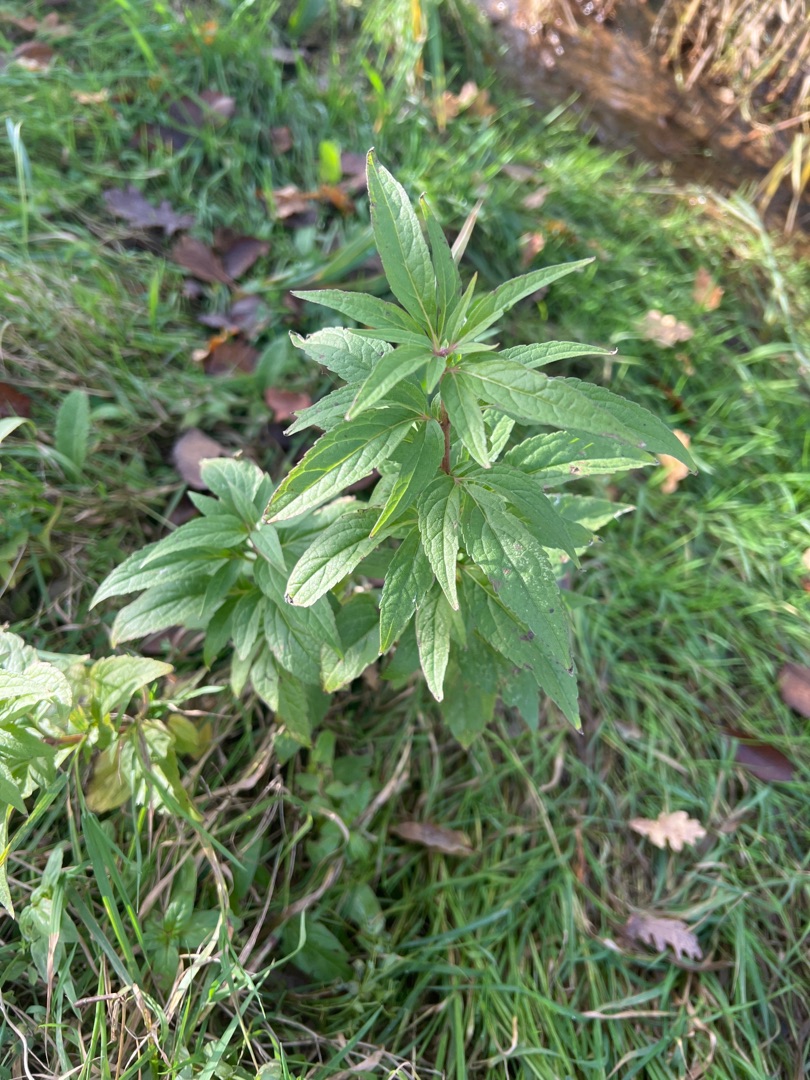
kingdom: Plantae
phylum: Tracheophyta
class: Magnoliopsida
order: Asterales
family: Asteraceae
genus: Eupatorium
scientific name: Eupatorium cannabinum
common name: Hjortetrøst
